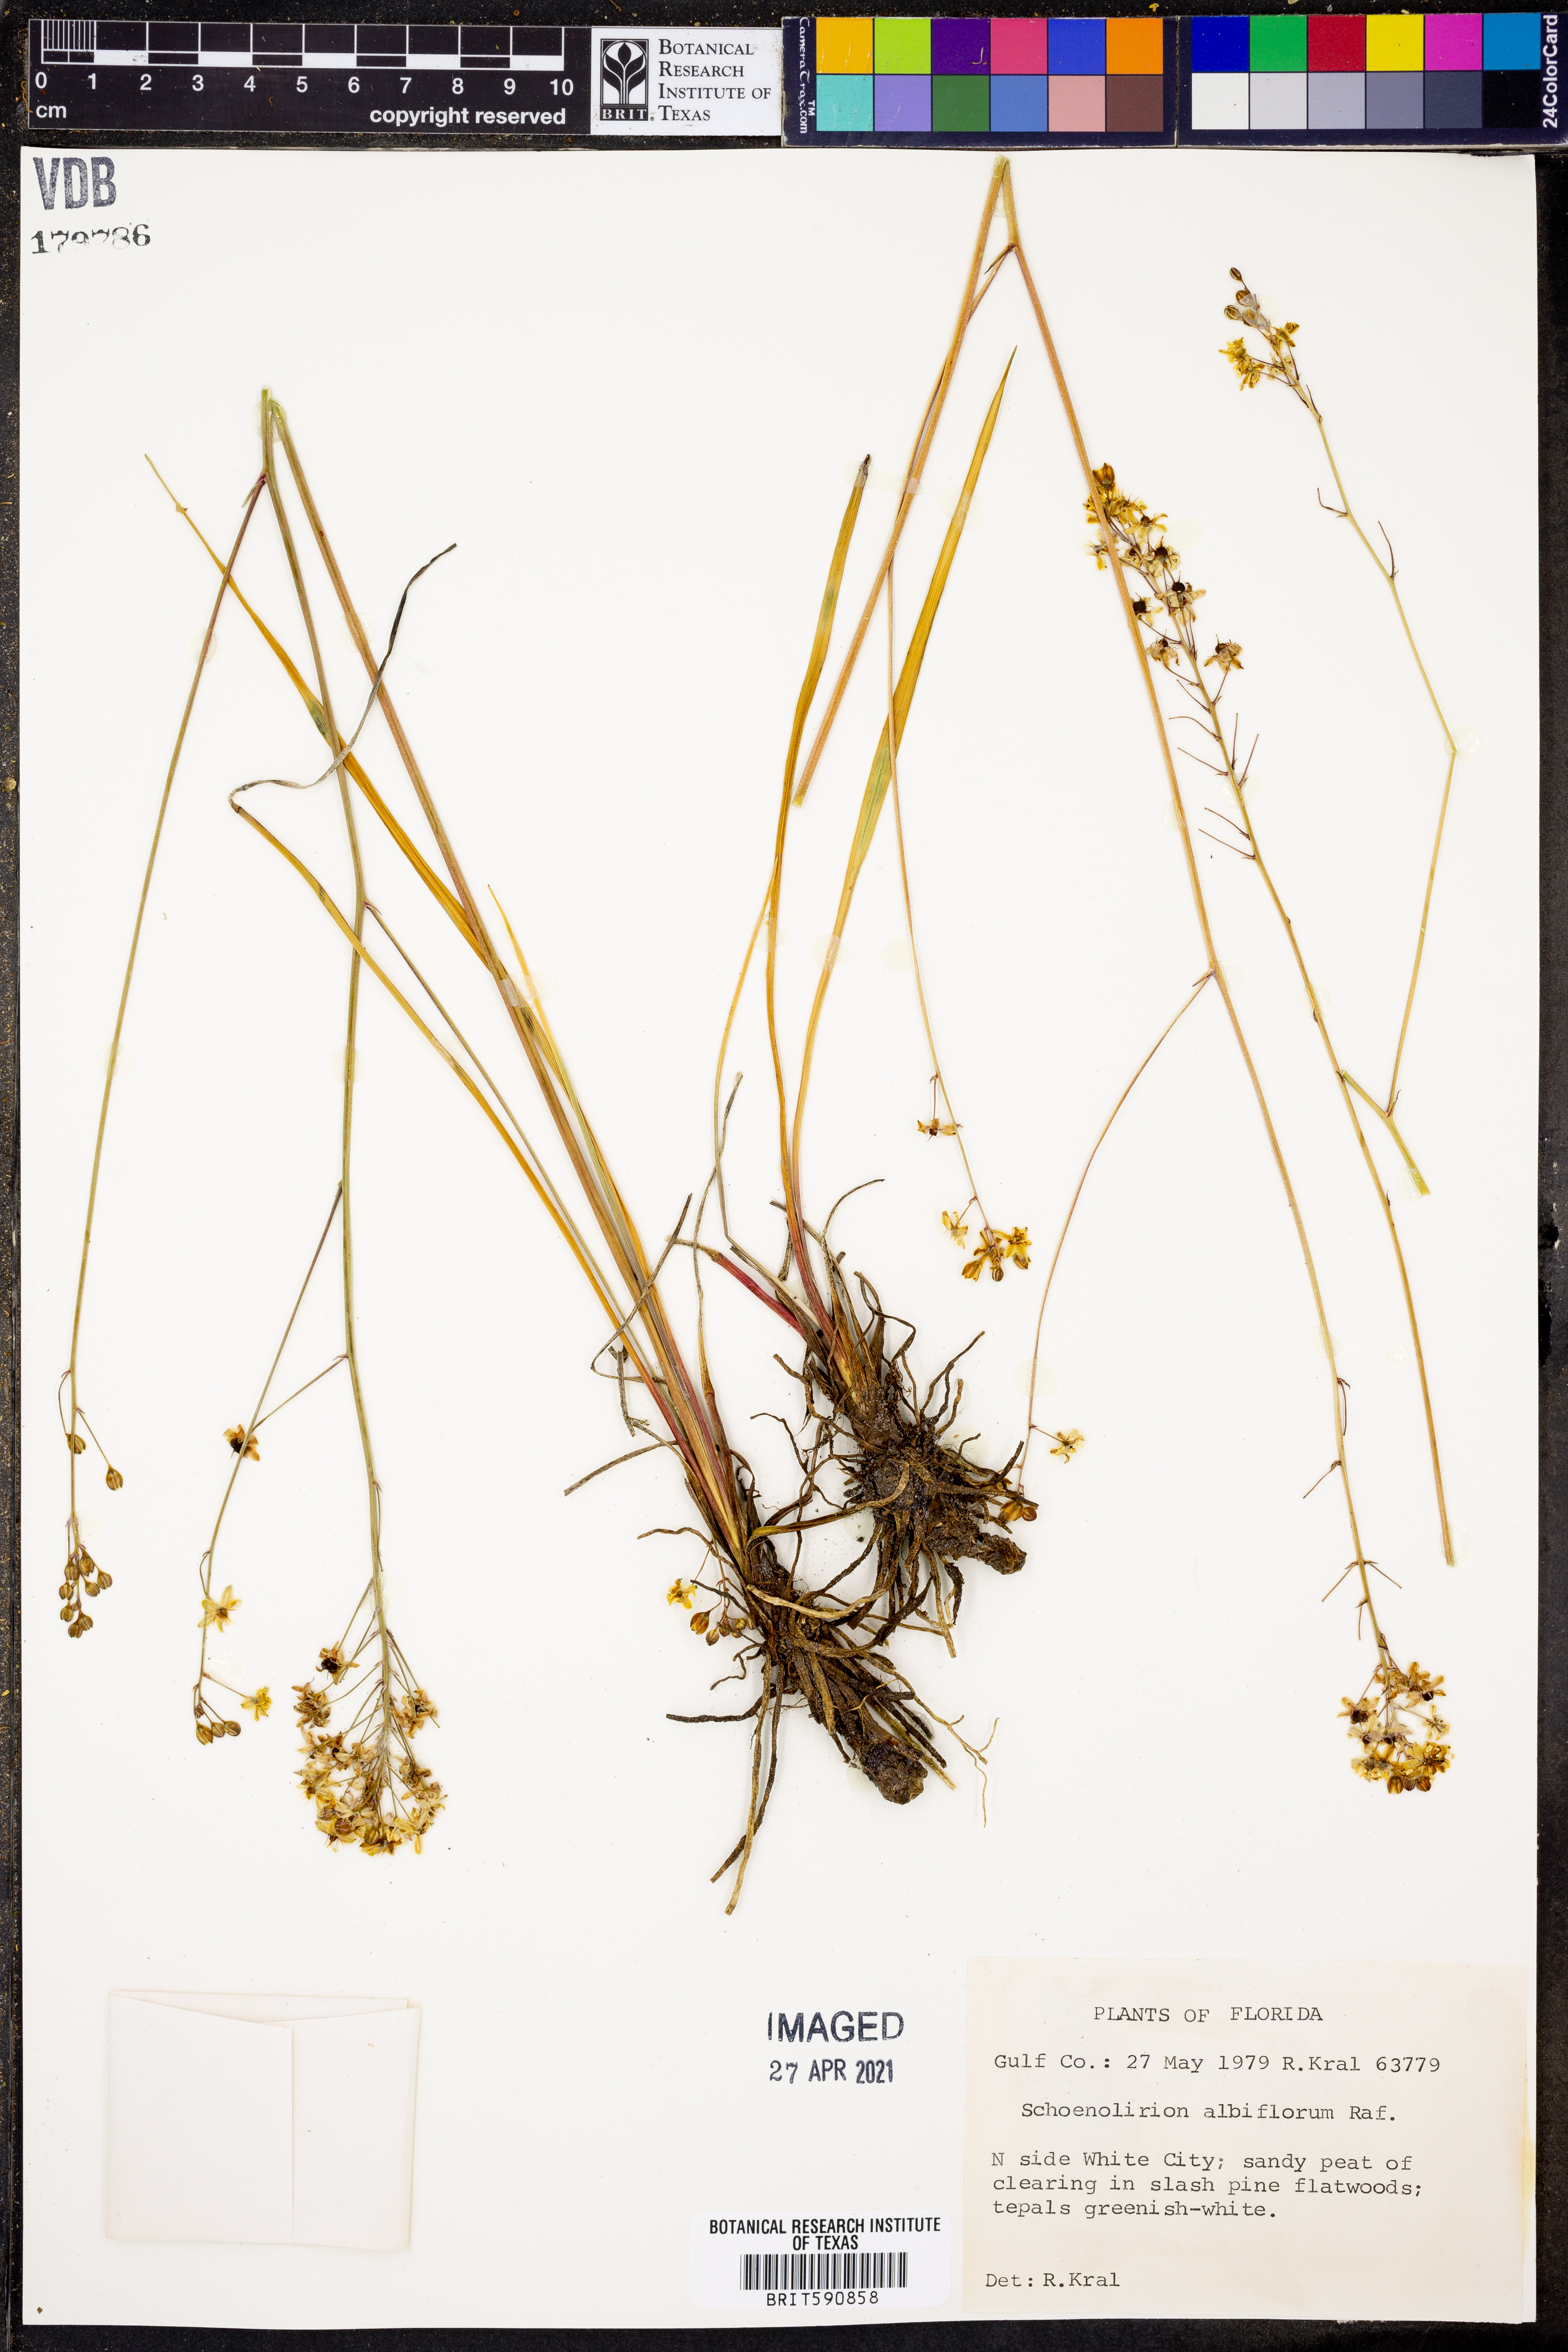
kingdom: Plantae
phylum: Tracheophyta
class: Liliopsida
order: Asparagales
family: Asparagaceae
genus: Schoenolirion
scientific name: Schoenolirion albiflorum
